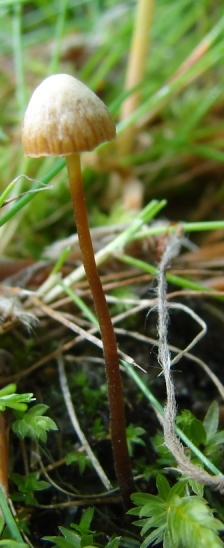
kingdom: Fungi
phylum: Basidiomycota
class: Agaricomycetes
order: Agaricales
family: Hymenogastraceae
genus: Galerina
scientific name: Galerina atkinsoniana
